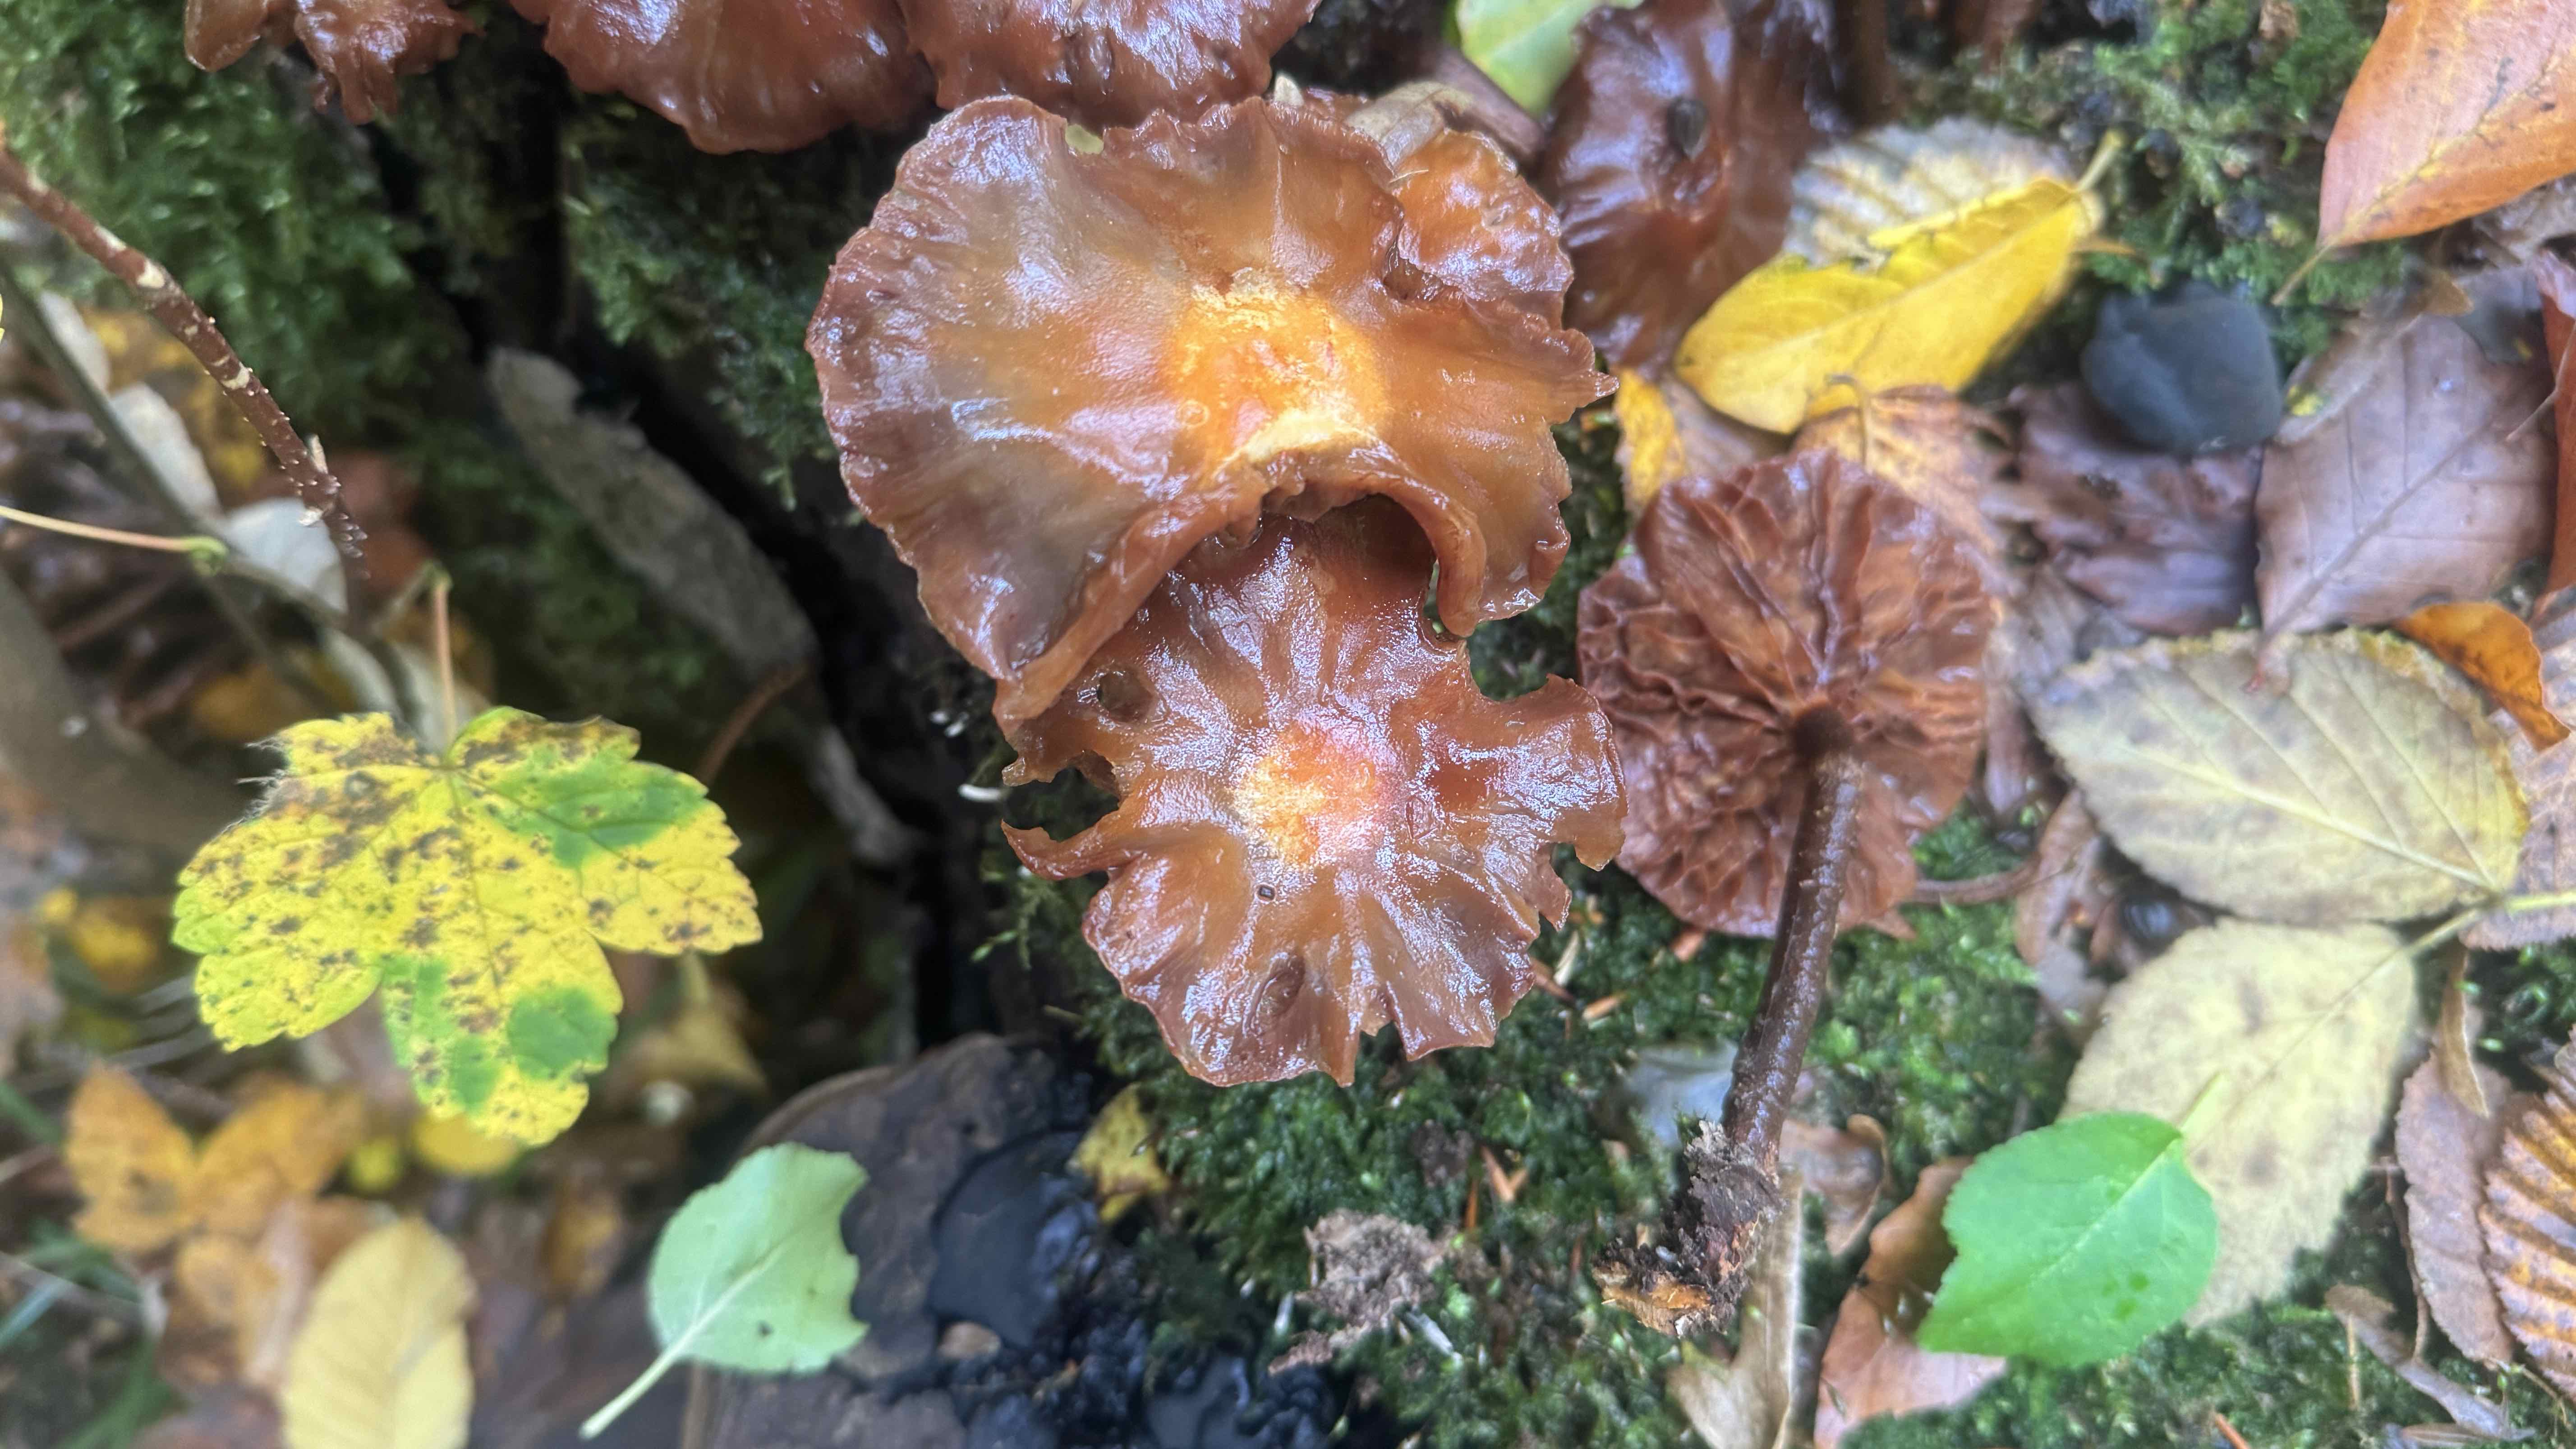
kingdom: Fungi
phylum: Basidiomycota
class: Agaricomycetes
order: Agaricales
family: Strophariaceae
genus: Kuehneromyces
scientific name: Kuehneromyces mutabilis
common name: foranderlig skælhat
